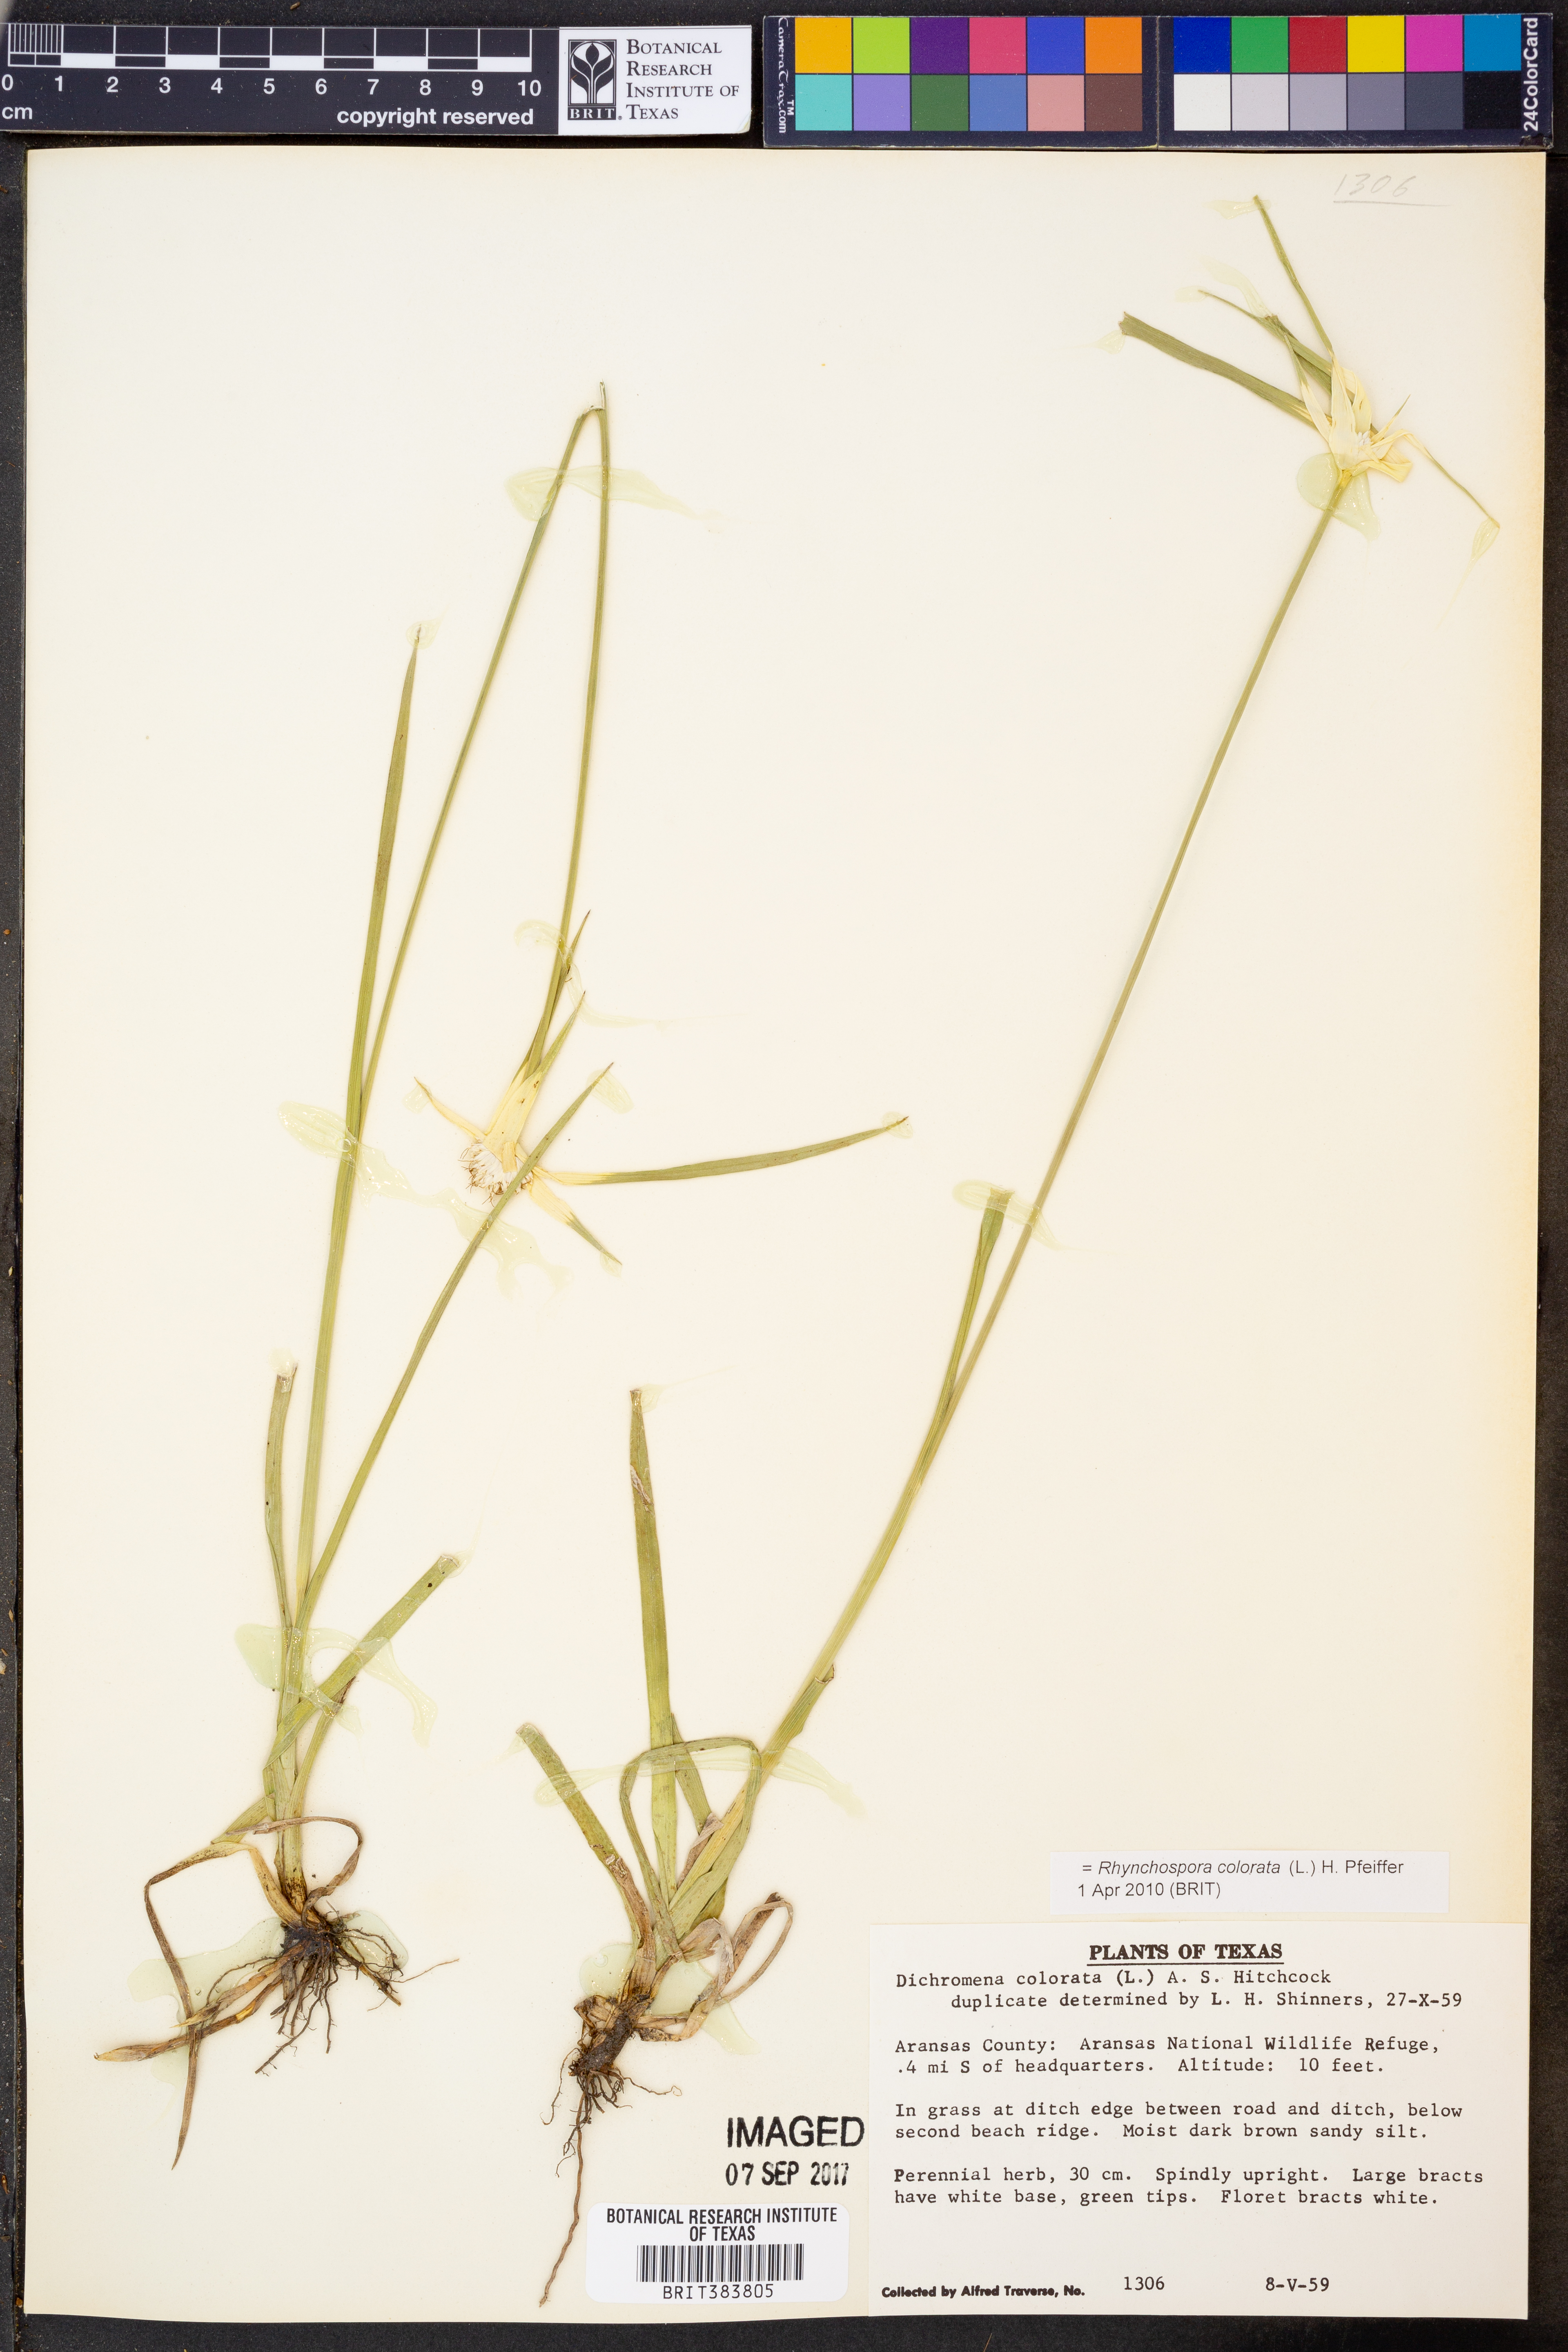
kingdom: Plantae
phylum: Tracheophyta
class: Liliopsida
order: Poales
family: Cyperaceae
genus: Rhynchospora
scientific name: Rhynchospora colorata
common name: Star sedge
